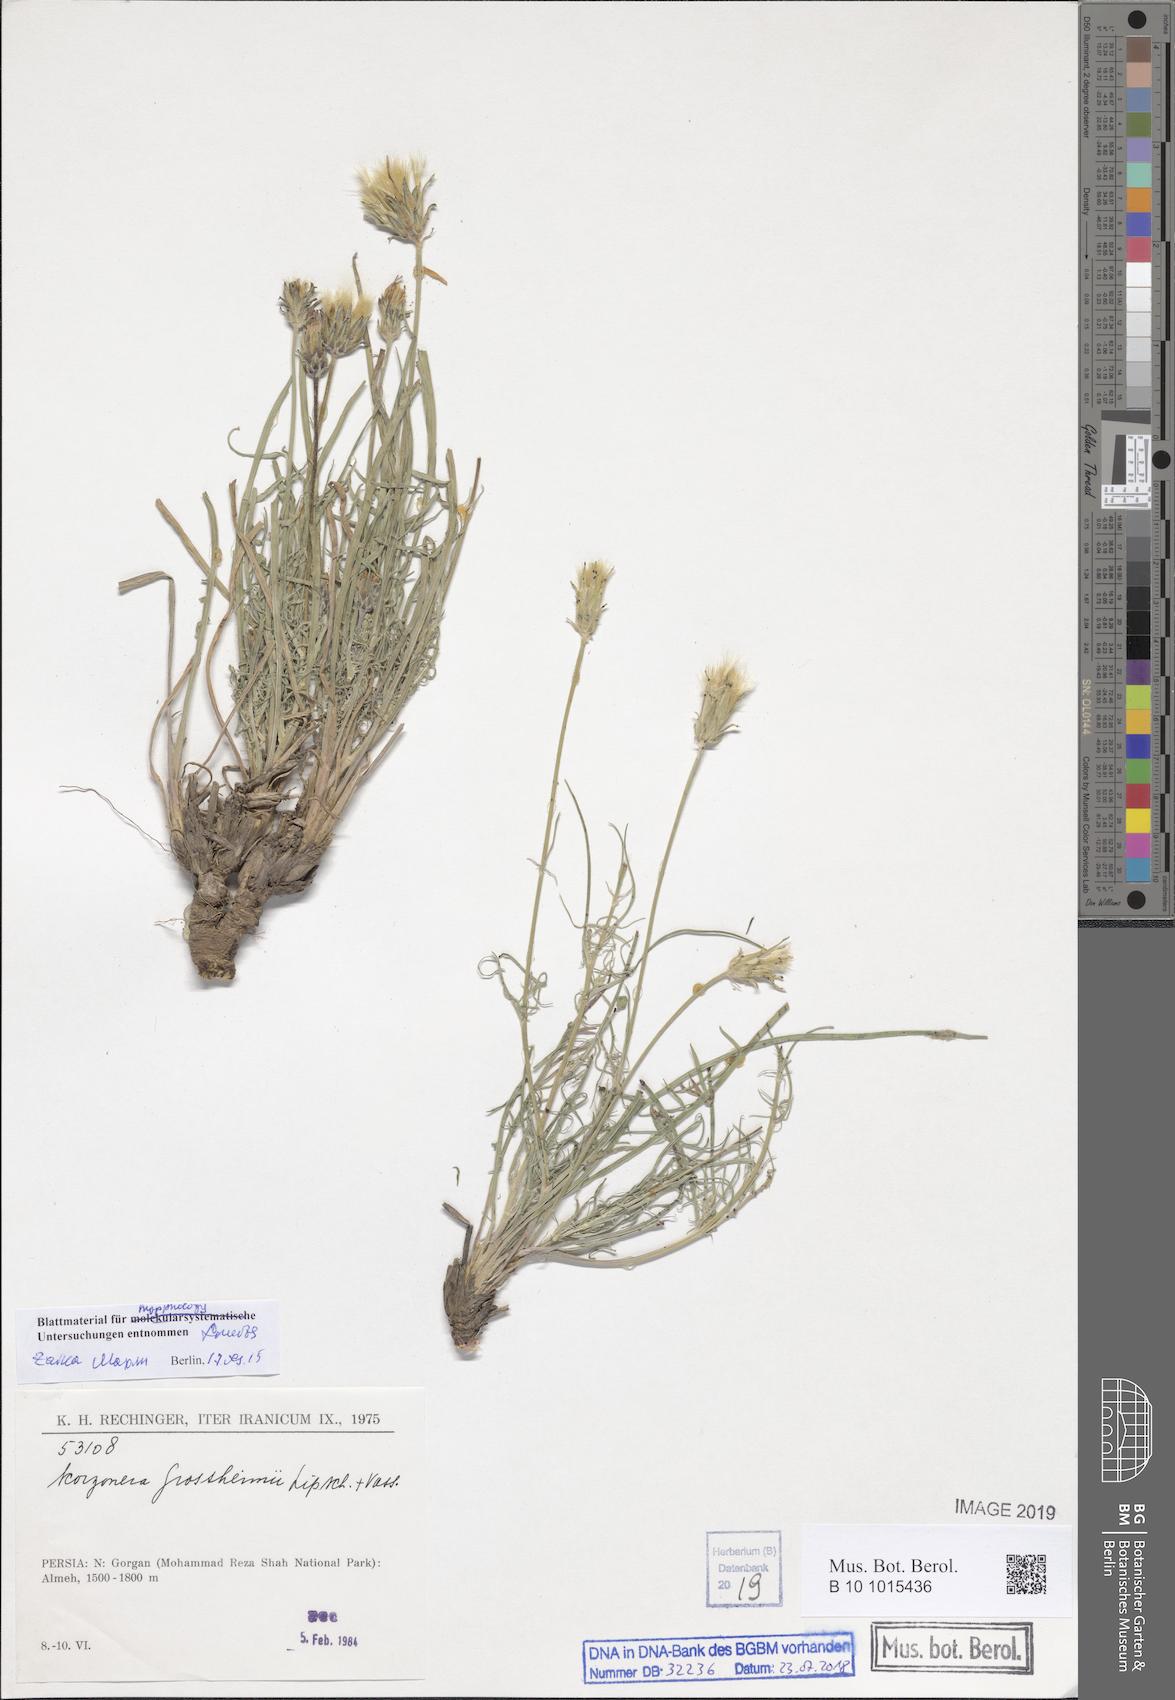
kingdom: Plantae
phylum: Tracheophyta
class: Magnoliopsida
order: Asterales
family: Asteraceae
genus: Scorzonera
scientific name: Scorzonera grossheimii
